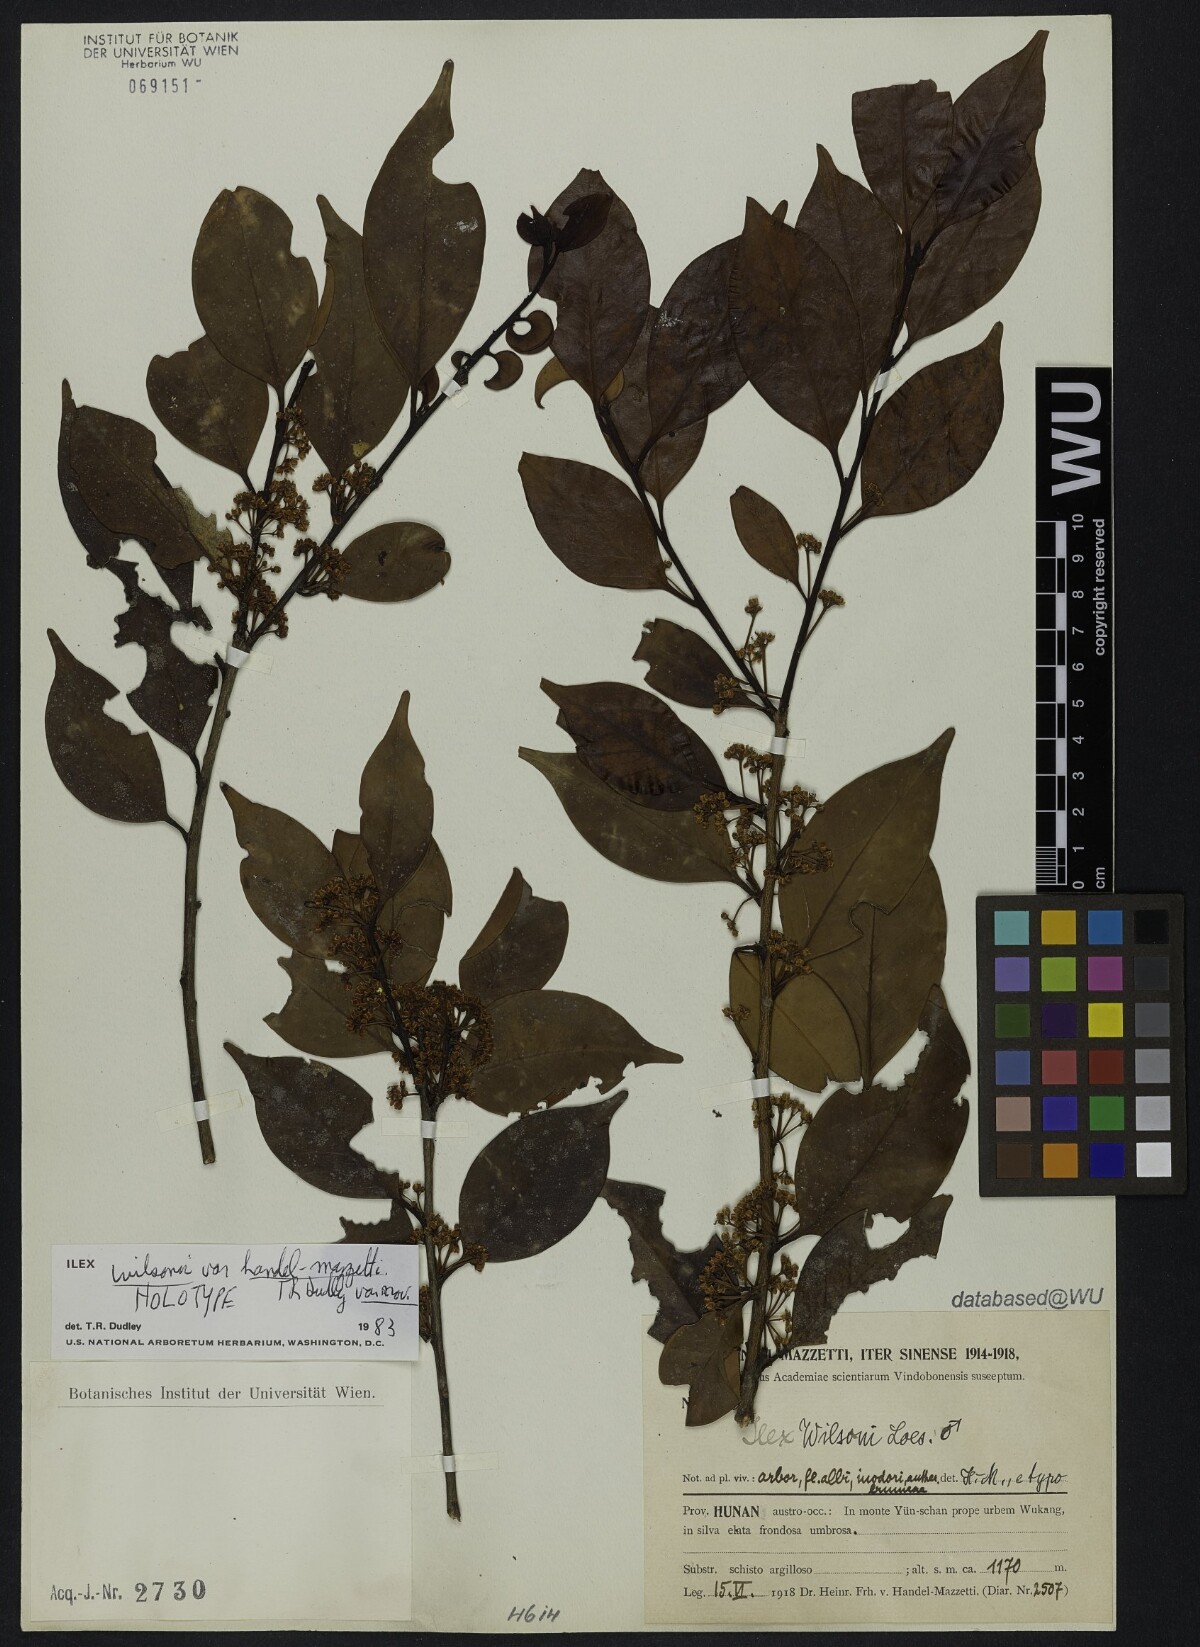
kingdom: Plantae
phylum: Tracheophyta
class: Magnoliopsida
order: Aquifoliales
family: Aquifoliaceae
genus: Ilex
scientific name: Ilex wilsonii
